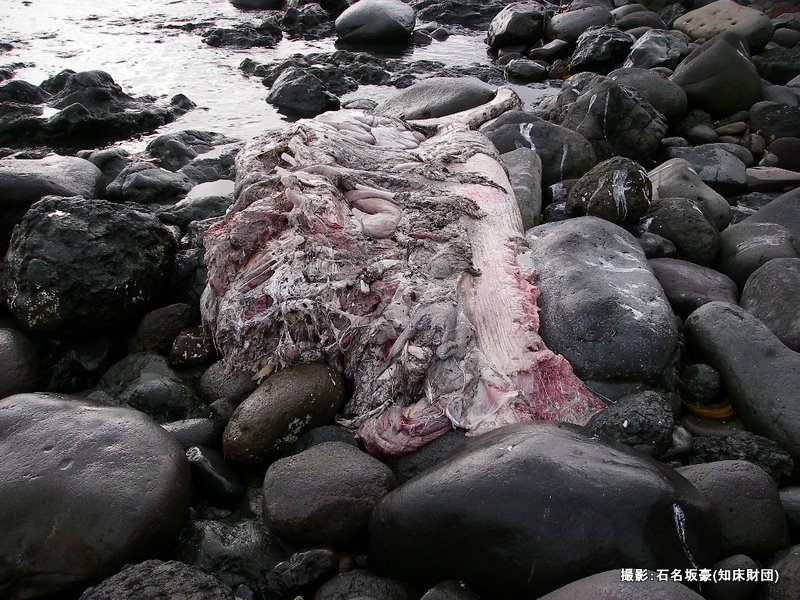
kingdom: Animalia
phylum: Chordata
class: Mammalia
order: Cetacea
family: Balaenopteridae
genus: Balaenoptera
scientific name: Balaenoptera acutorostrata
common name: Minke whale
